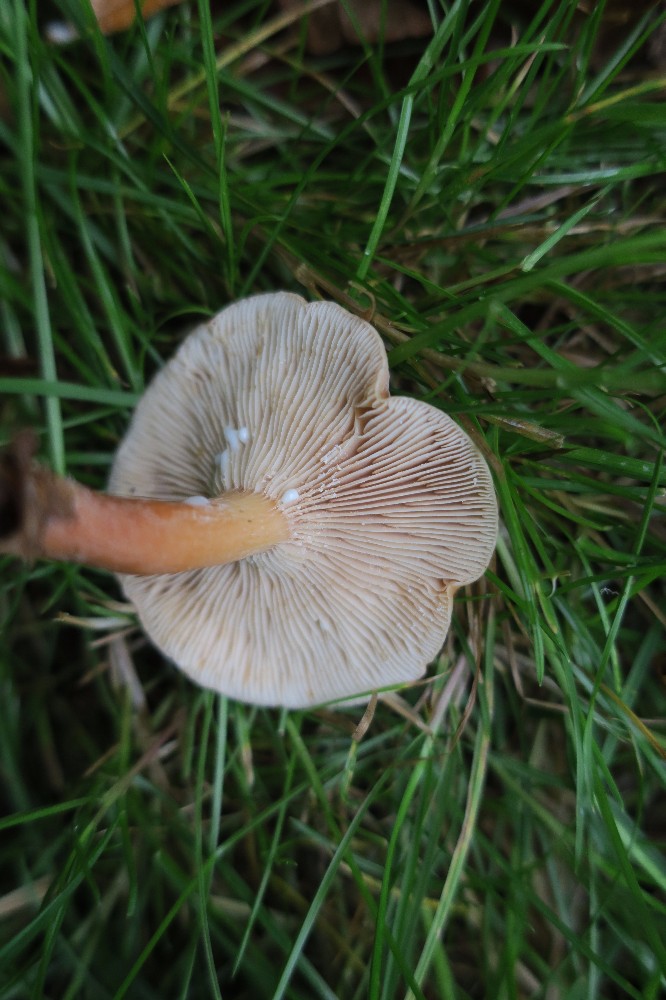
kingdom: Fungi
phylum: Basidiomycota
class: Agaricomycetes
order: Russulales
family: Russulaceae
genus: Lactarius
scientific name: Lactarius subdulcis
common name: sødlig mælkehat
